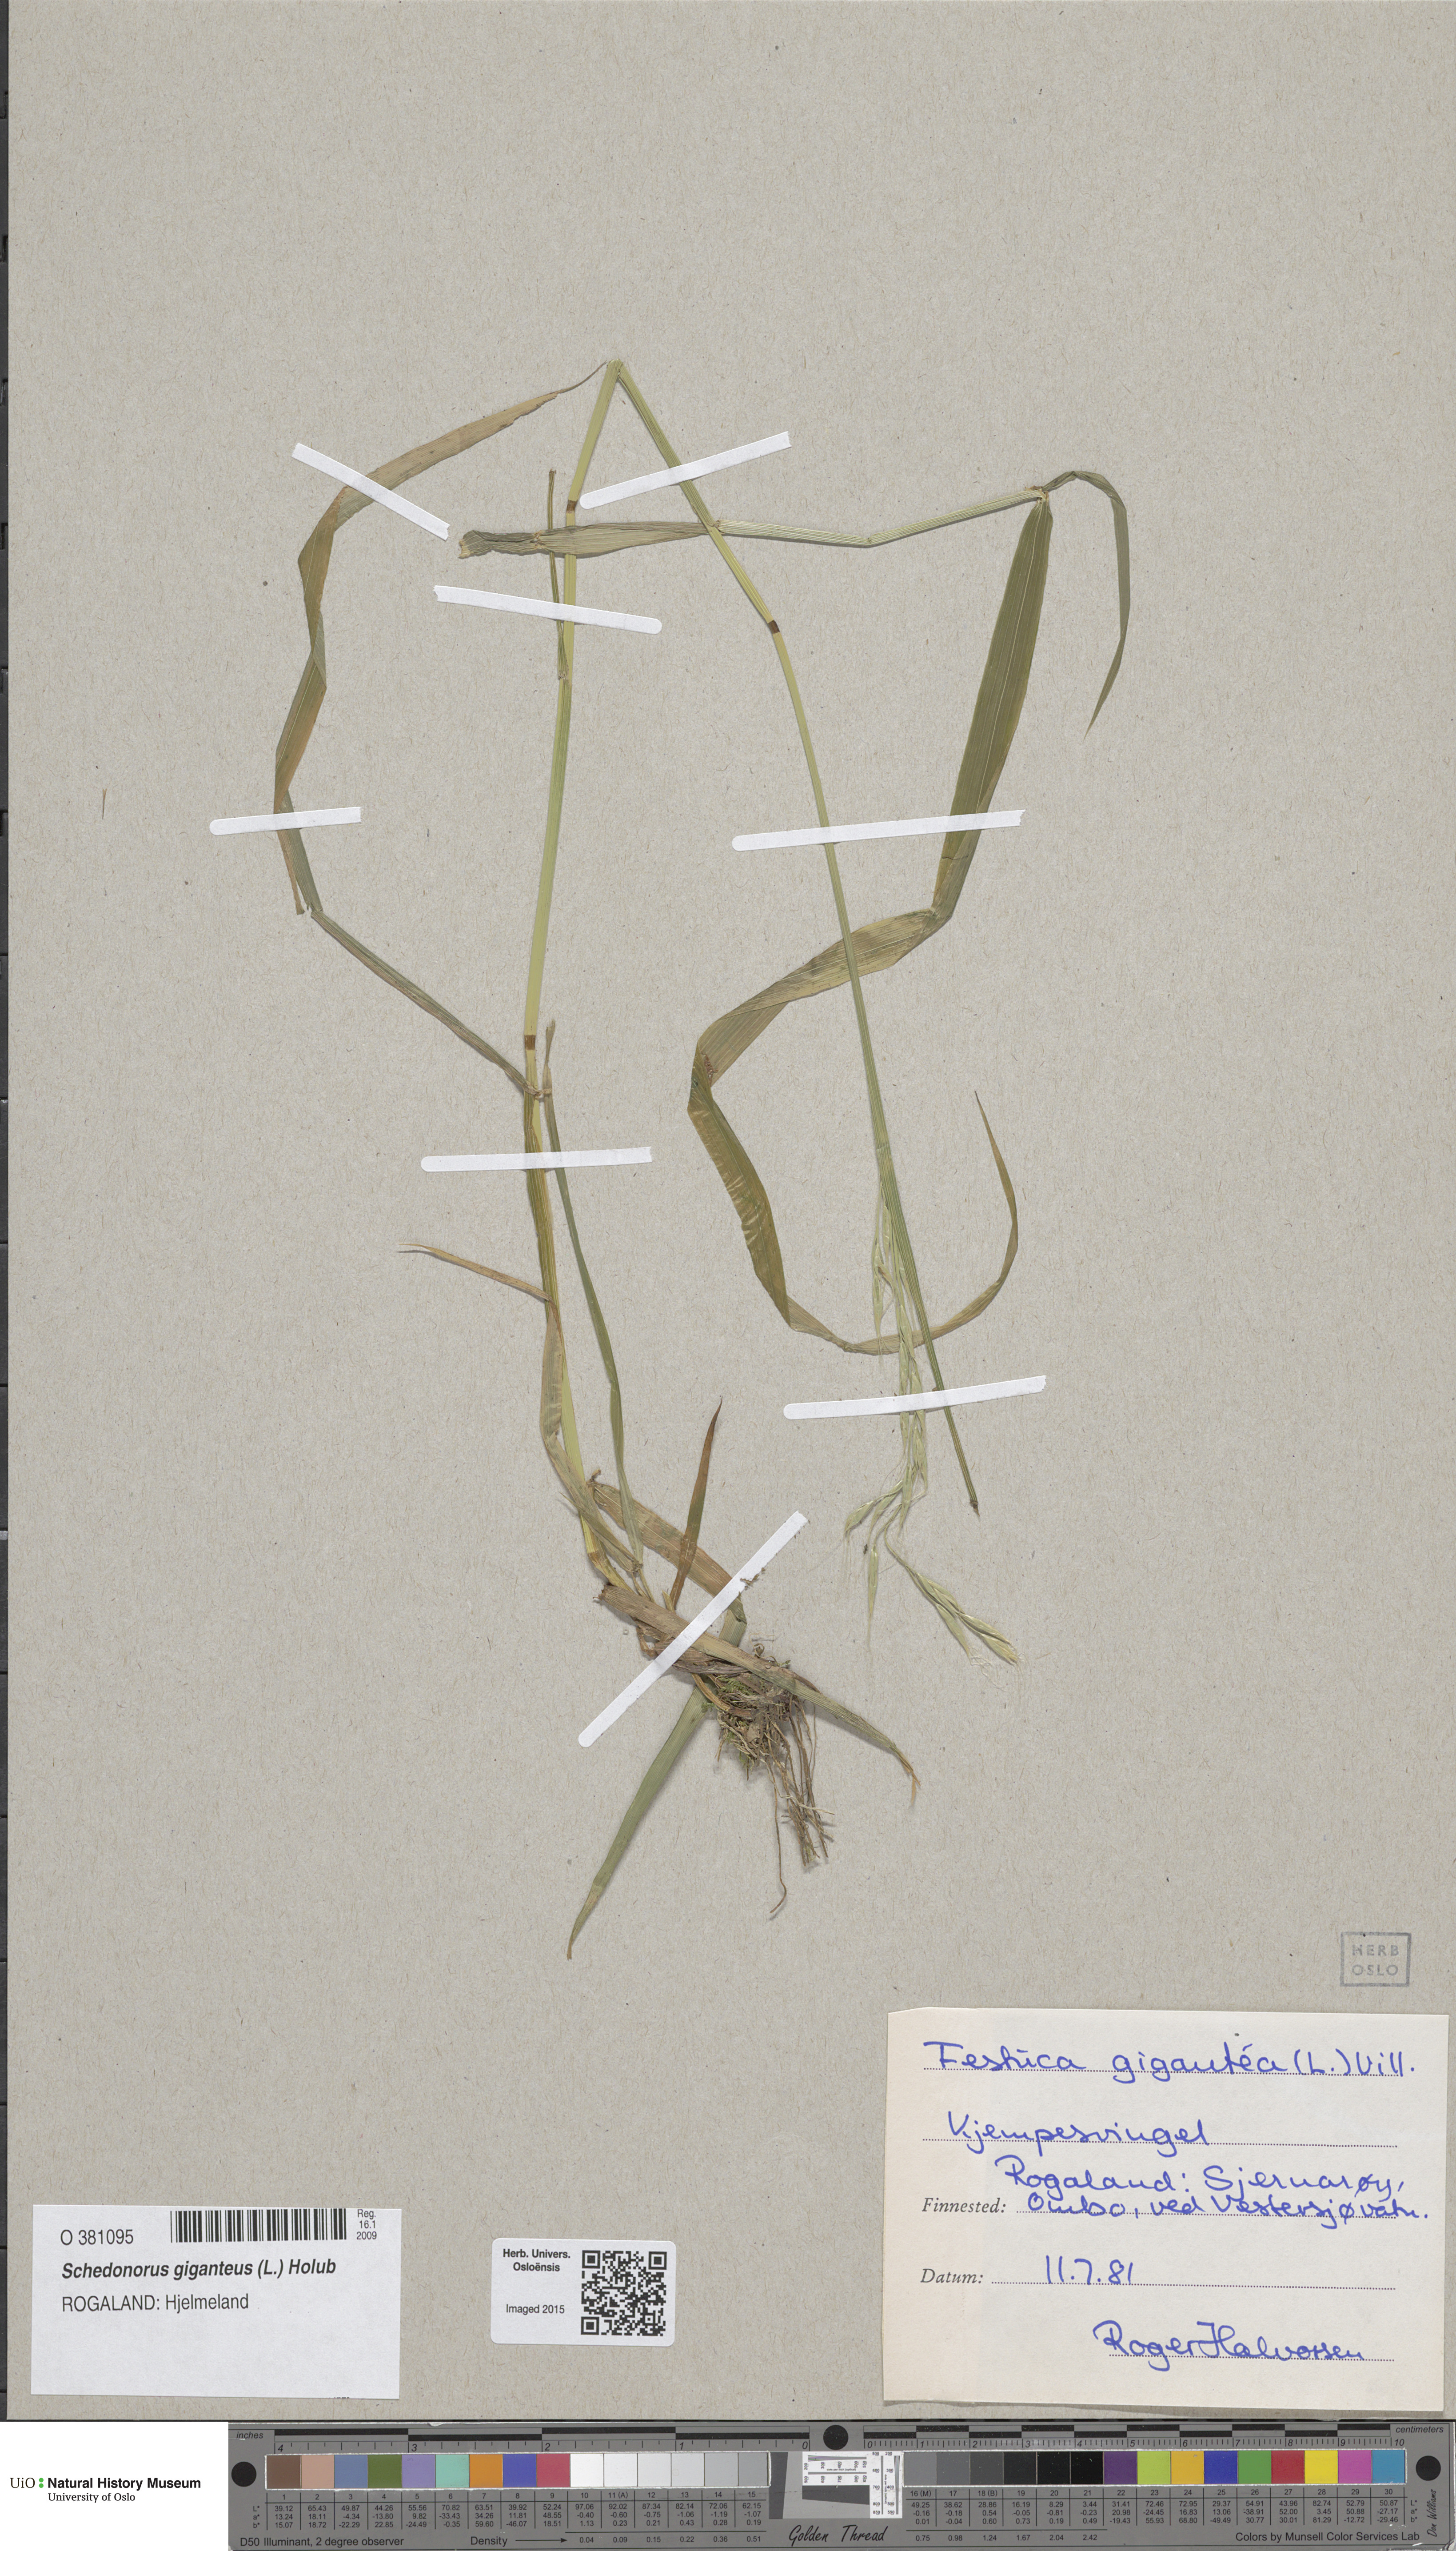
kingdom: Plantae
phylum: Tracheophyta
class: Liliopsida
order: Poales
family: Poaceae
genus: Lolium
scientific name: Lolium giganteum
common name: Giant fescue
